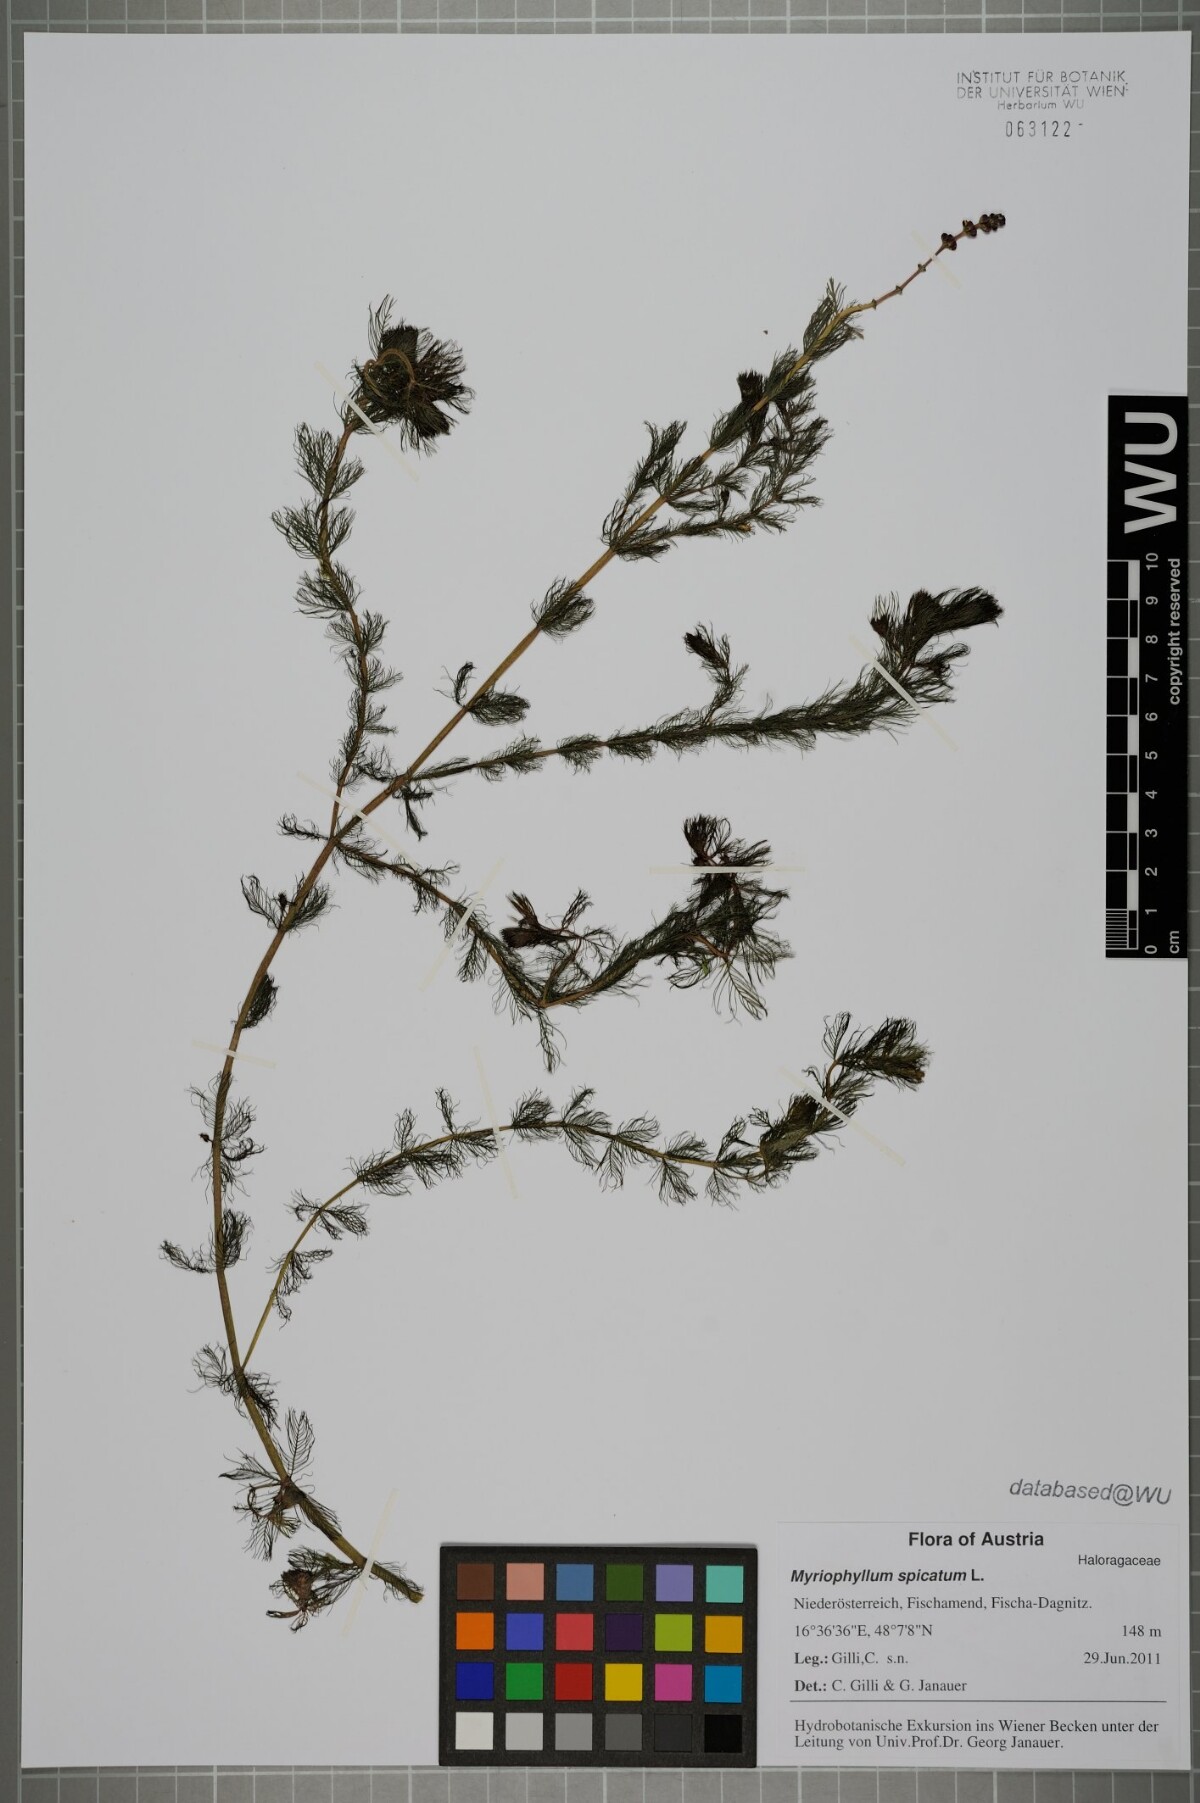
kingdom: Plantae
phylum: Tracheophyta
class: Magnoliopsida
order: Saxifragales
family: Haloragaceae
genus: Myriophyllum
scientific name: Myriophyllum spicatum
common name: Spiked water-milfoil
